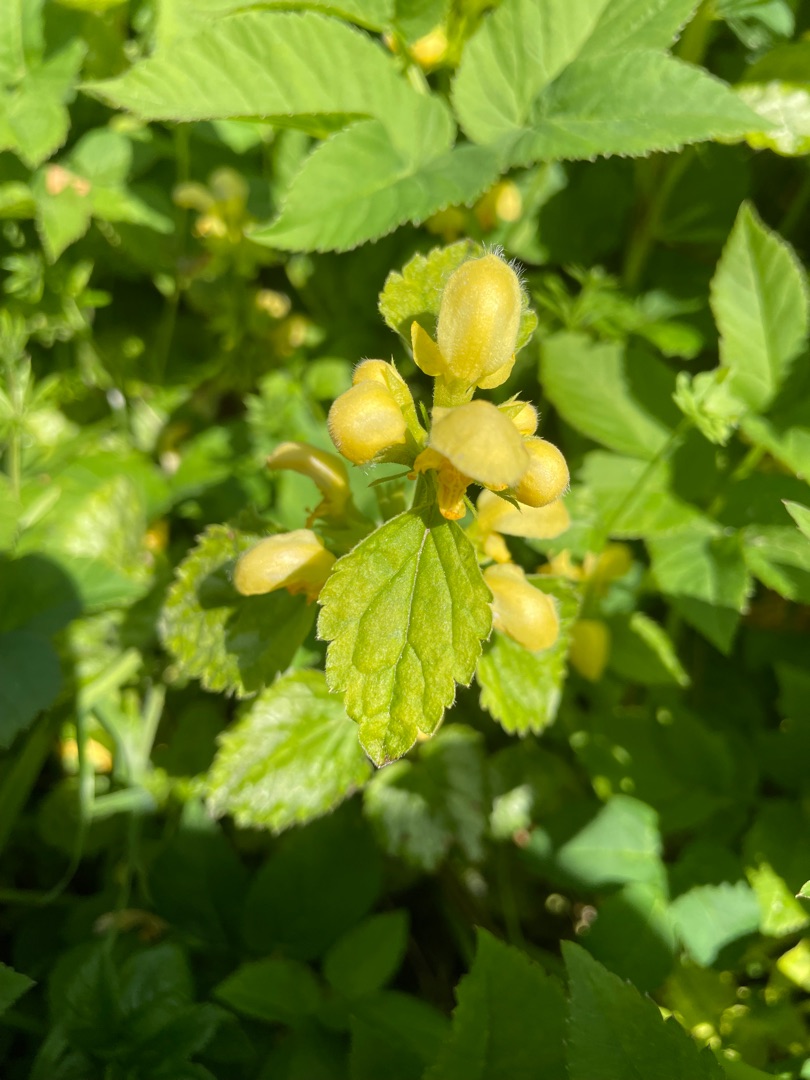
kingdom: Plantae
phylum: Tracheophyta
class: Magnoliopsida
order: Lamiales
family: Lamiaceae
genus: Lamium
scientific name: Lamium galeobdolon
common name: Guldnælde
